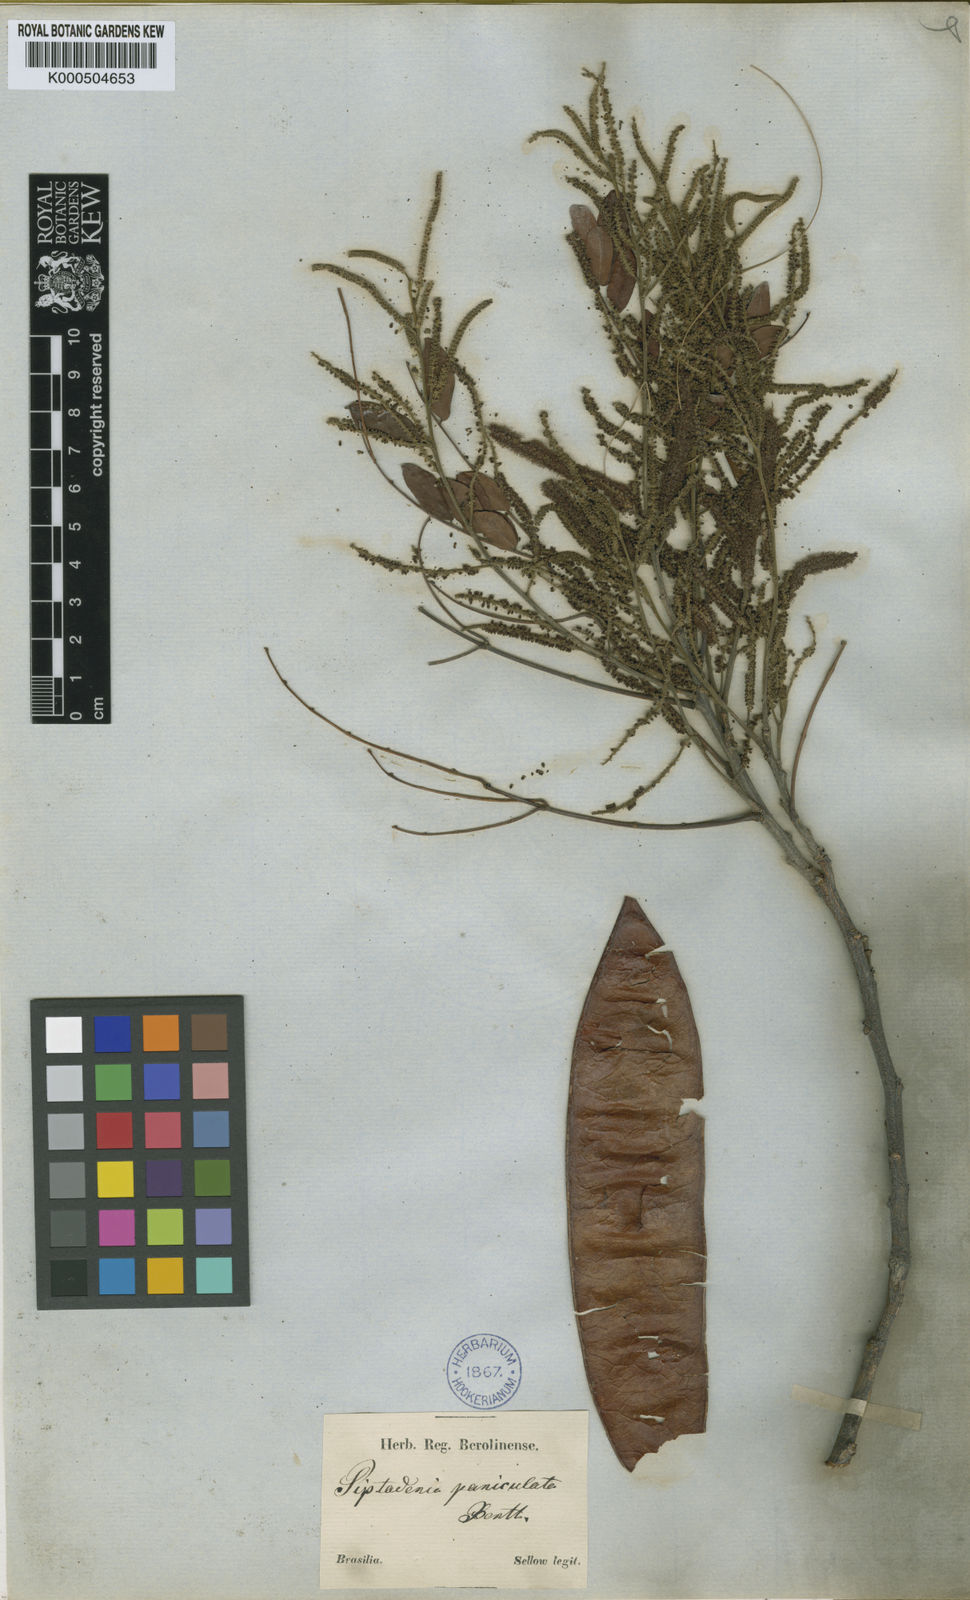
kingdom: Plantae
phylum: Tracheophyta
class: Magnoliopsida
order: Fabales
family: Fabaceae
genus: Piptadenia
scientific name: Piptadenia paniculata
